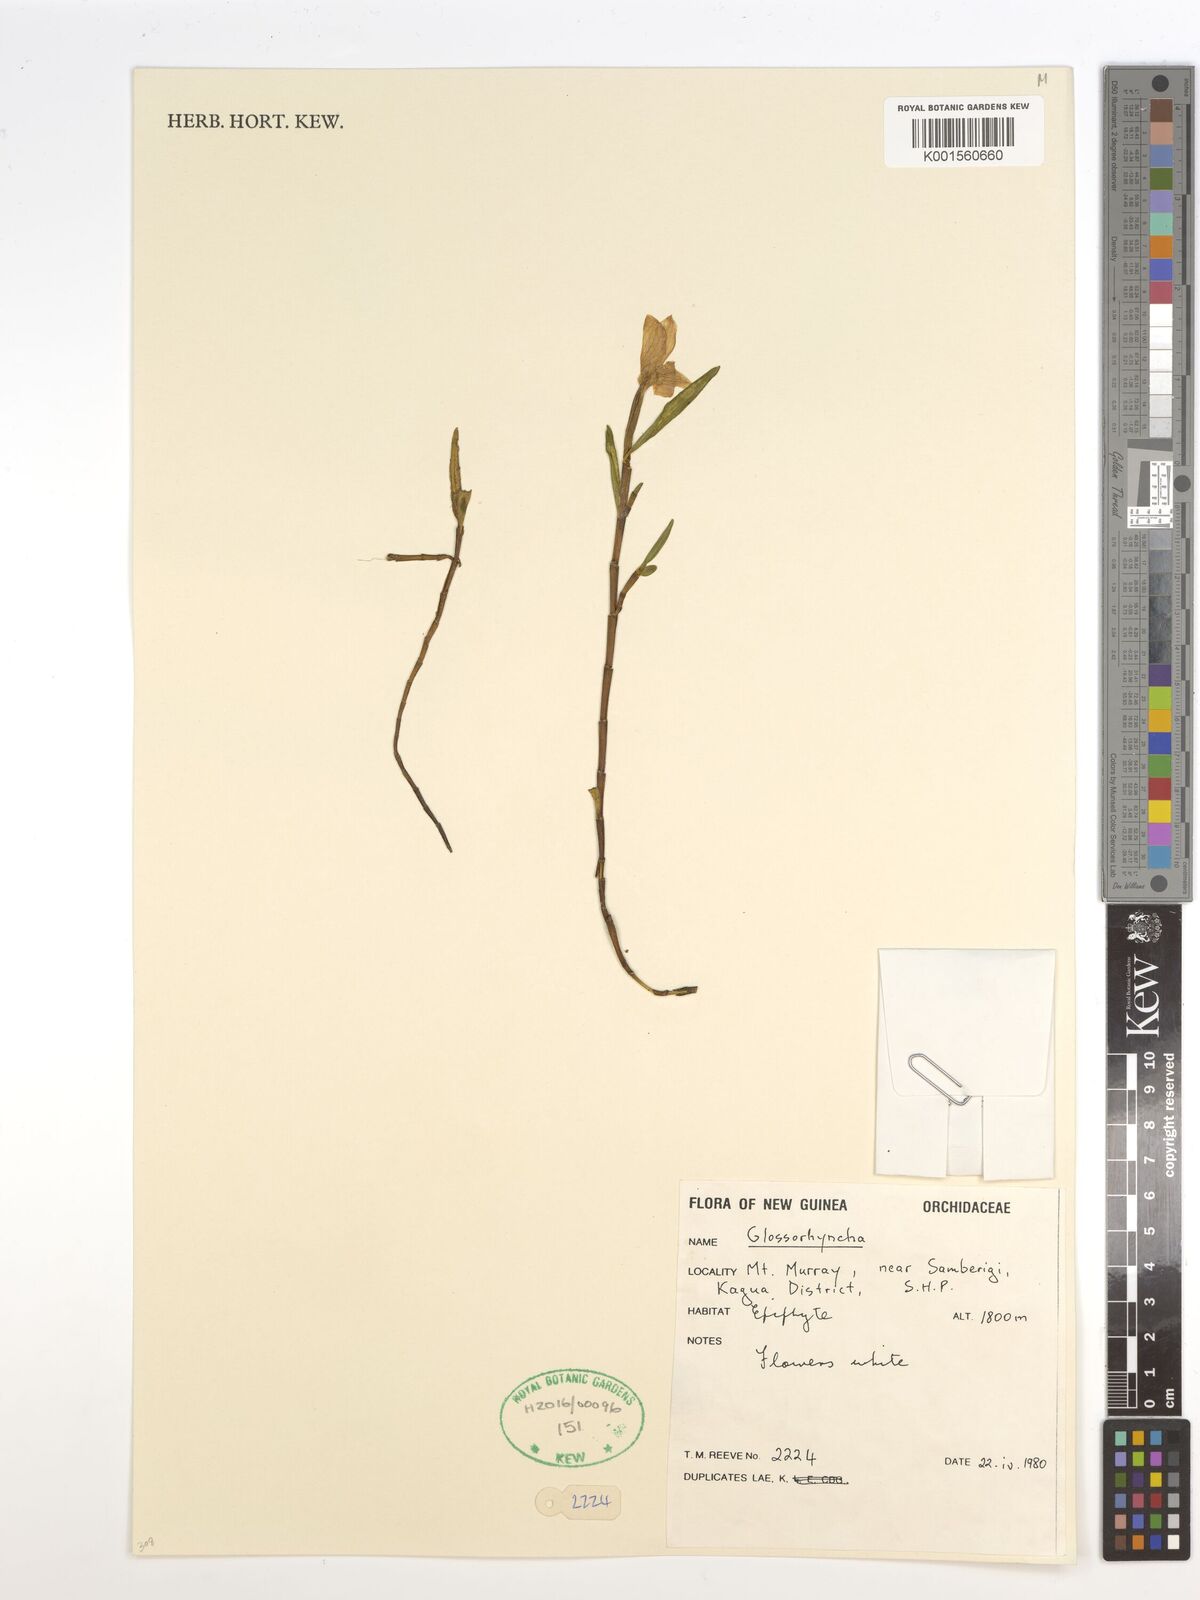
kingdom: Plantae
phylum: Tracheophyta
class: Liliopsida
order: Asparagales
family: Orchidaceae
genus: Glomera
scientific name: Glomera
